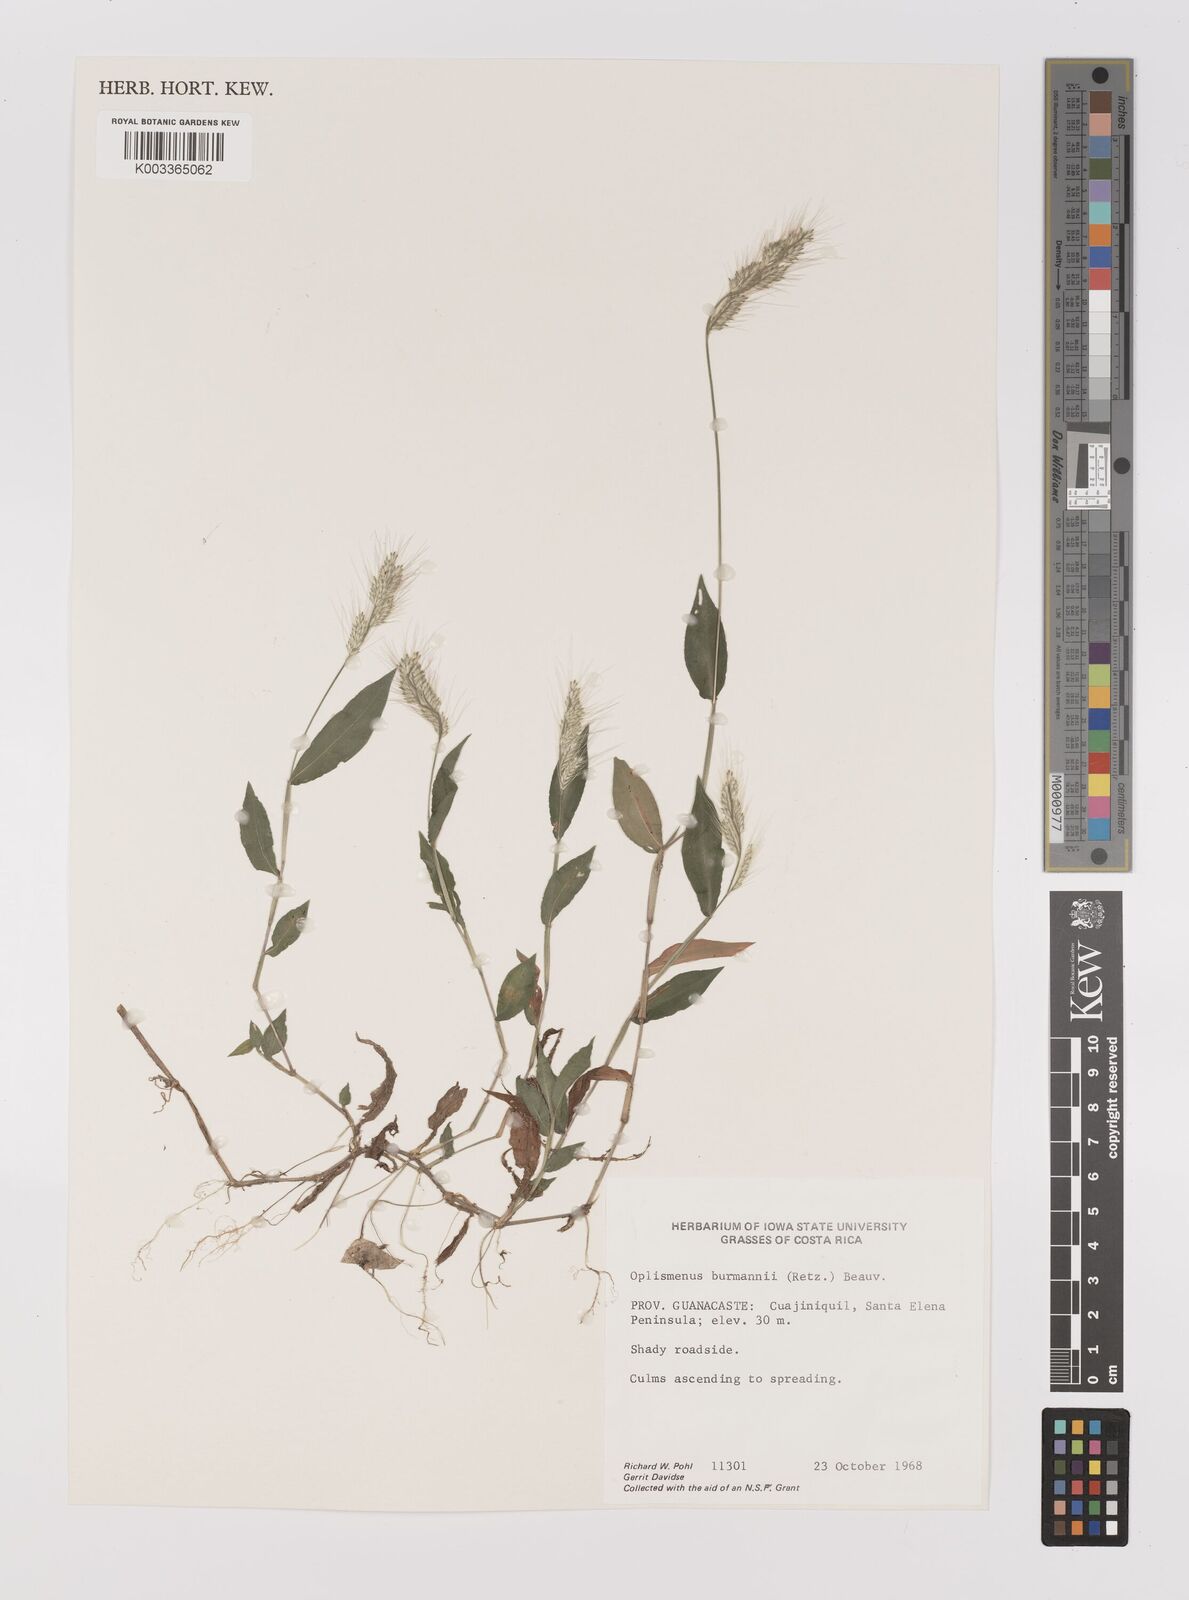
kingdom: Plantae
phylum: Tracheophyta
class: Liliopsida
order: Poales
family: Poaceae
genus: Oplismenus
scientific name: Oplismenus burmanni
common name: Burmann's basketgrass
